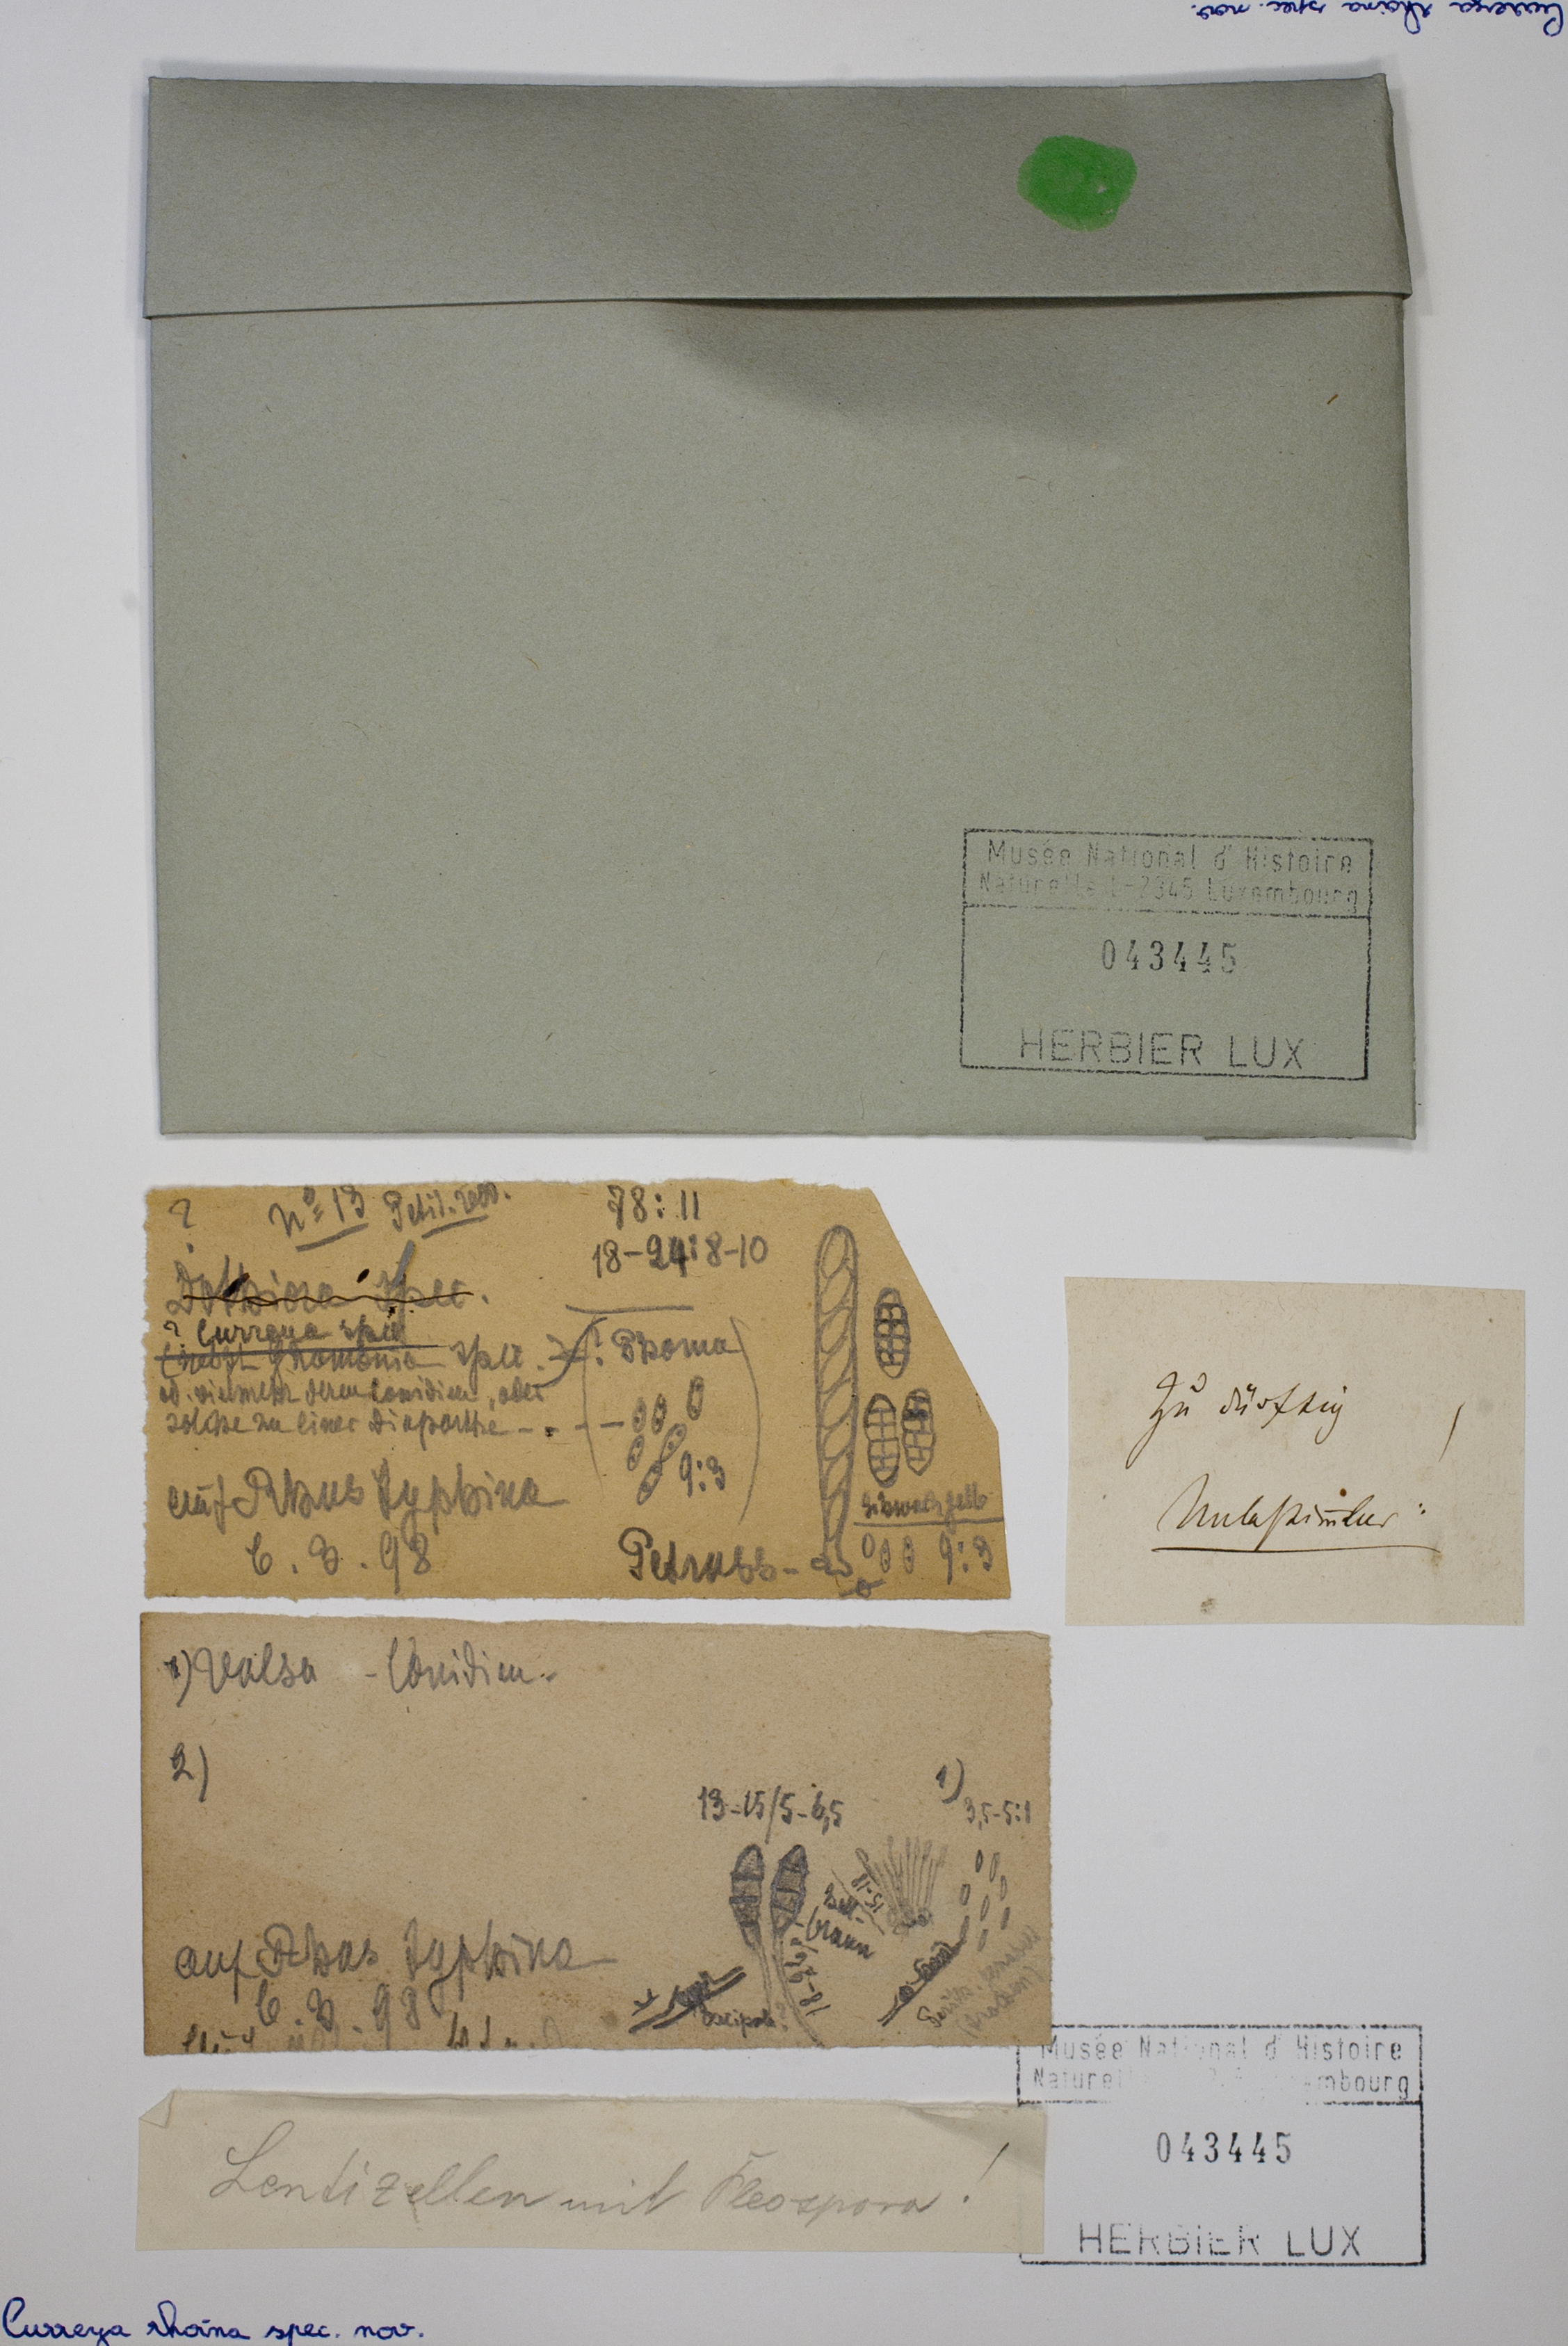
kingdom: Fungi
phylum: Ascomycota
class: Dothideomycetes
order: Pleosporales
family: Cucurbitariaceae
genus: Curreya
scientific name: Curreya rhoina
